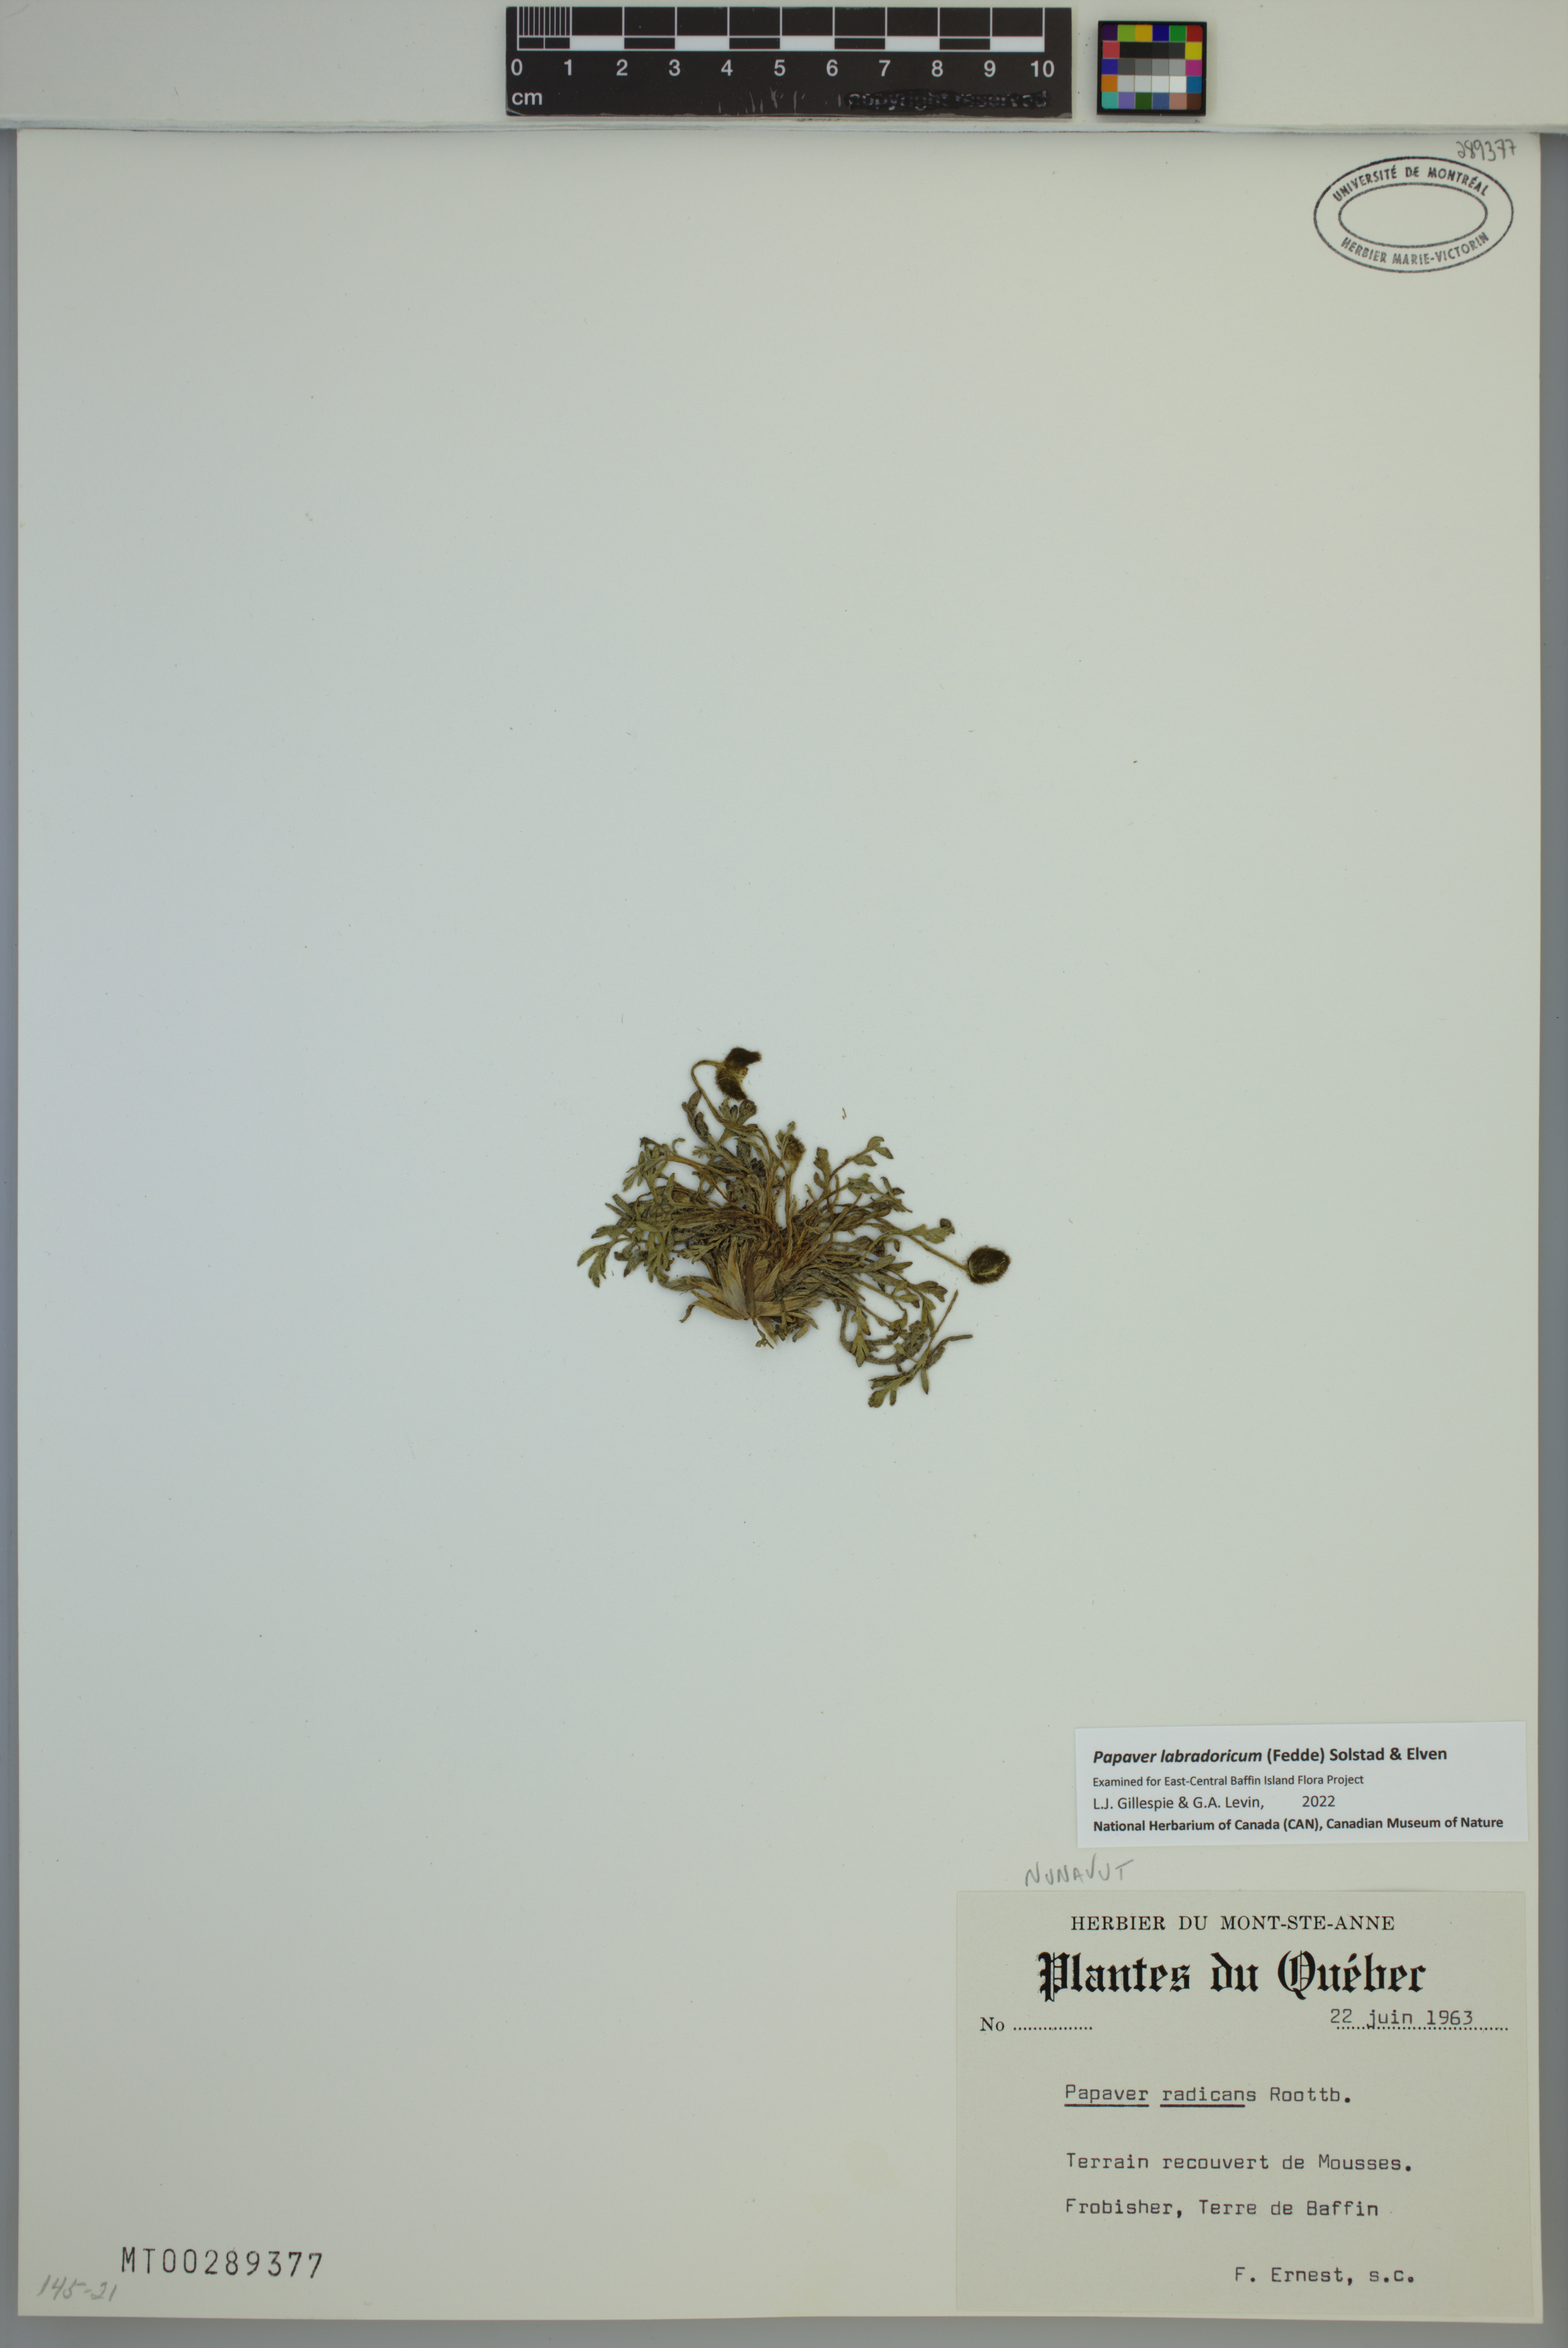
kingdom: Plantae
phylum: Tracheophyta
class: Magnoliopsida
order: Ranunculales
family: Papaveraceae
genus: Papaver
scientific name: Papaver radicatum
